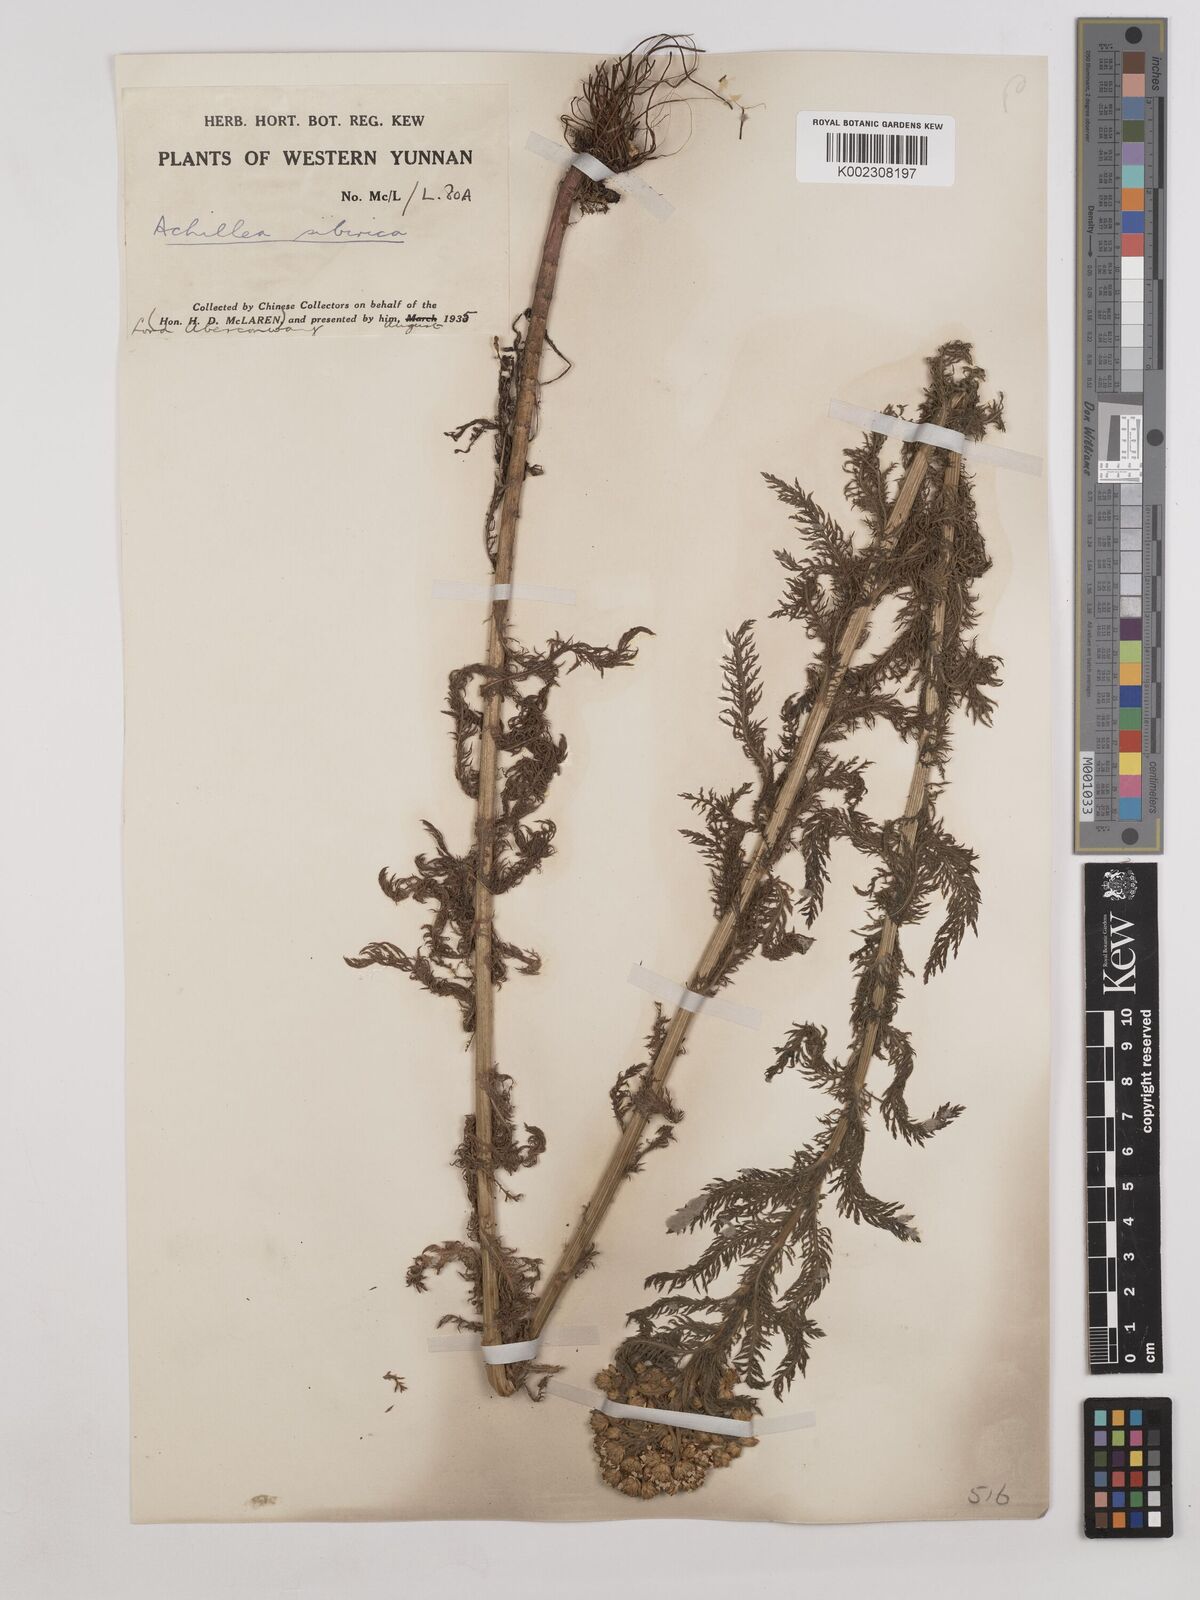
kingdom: Plantae
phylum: Tracheophyta
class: Magnoliopsida
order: Asterales
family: Asteraceae
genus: Achillea
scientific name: Achillea alpina
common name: Siberian yarrow
